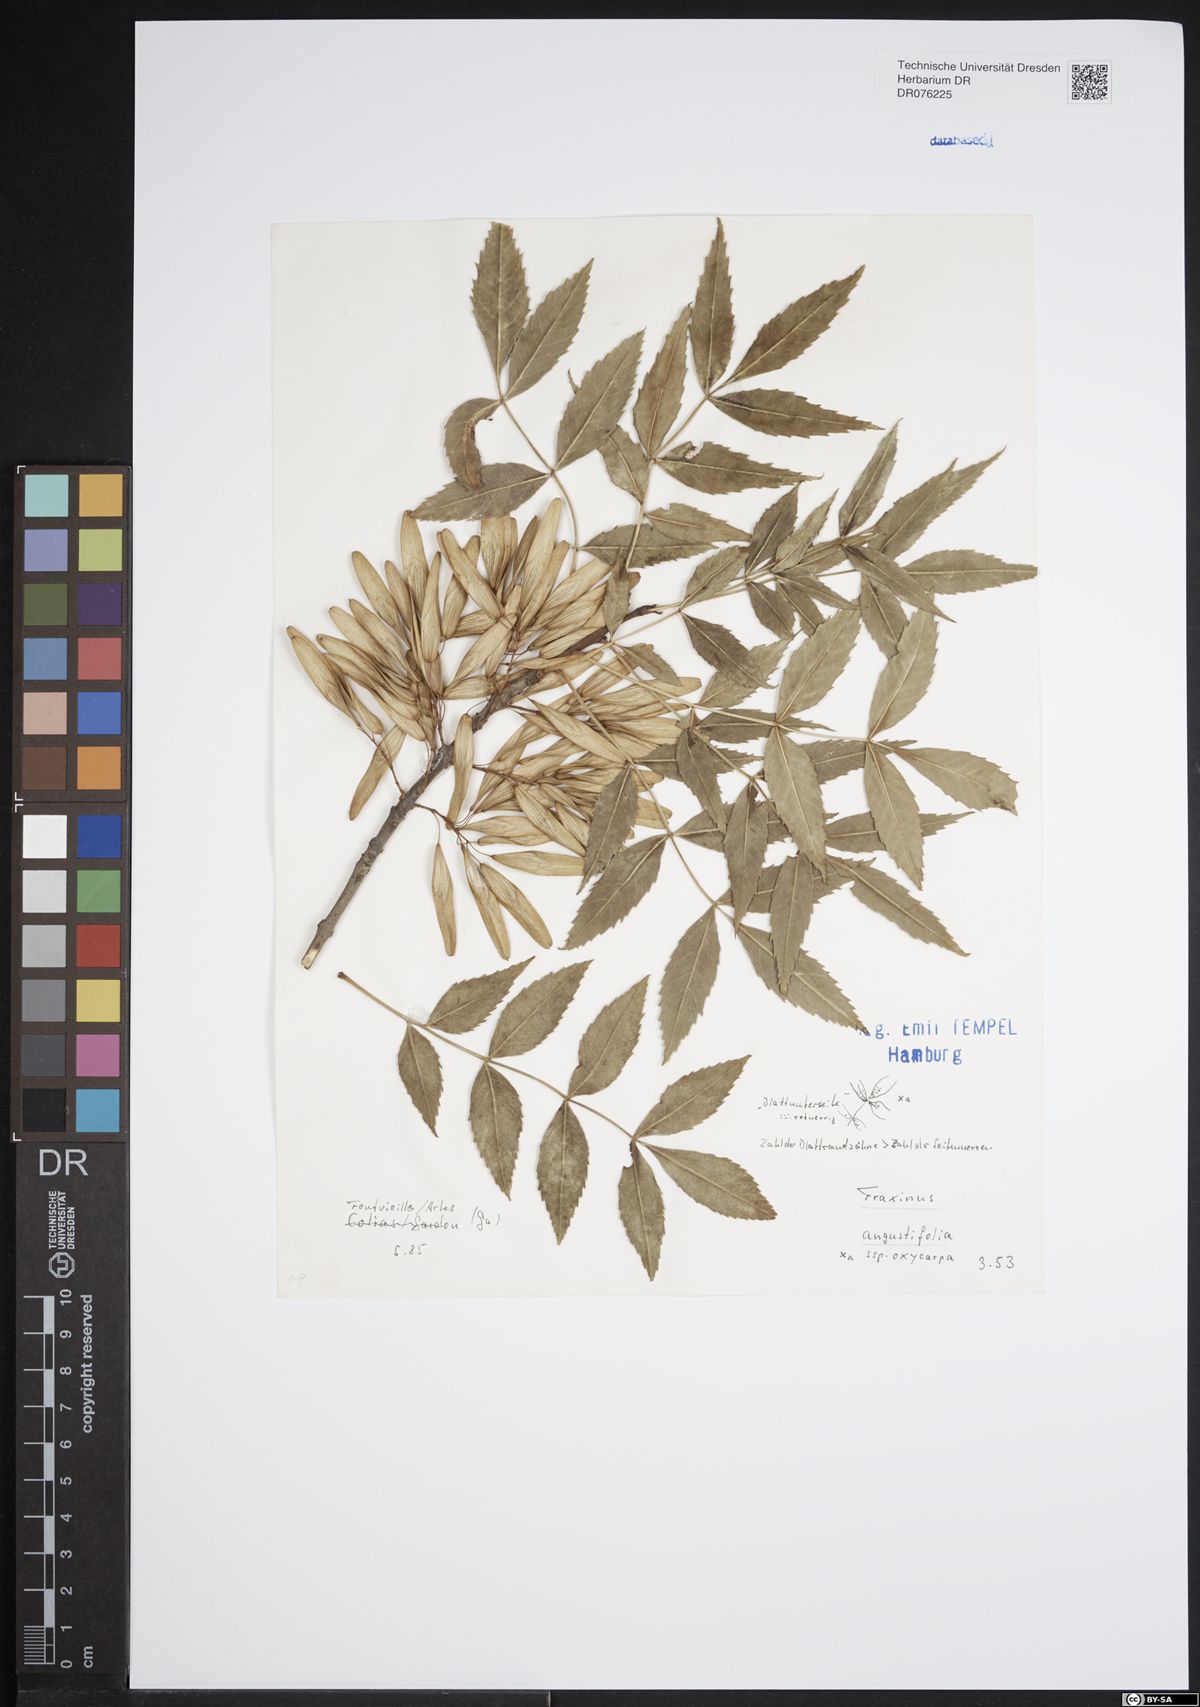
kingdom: Plantae
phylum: Tracheophyta
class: Magnoliopsida
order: Lamiales
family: Oleaceae
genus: Fraxinus
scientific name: Fraxinus angustifolia
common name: Narrow-leafed ash
